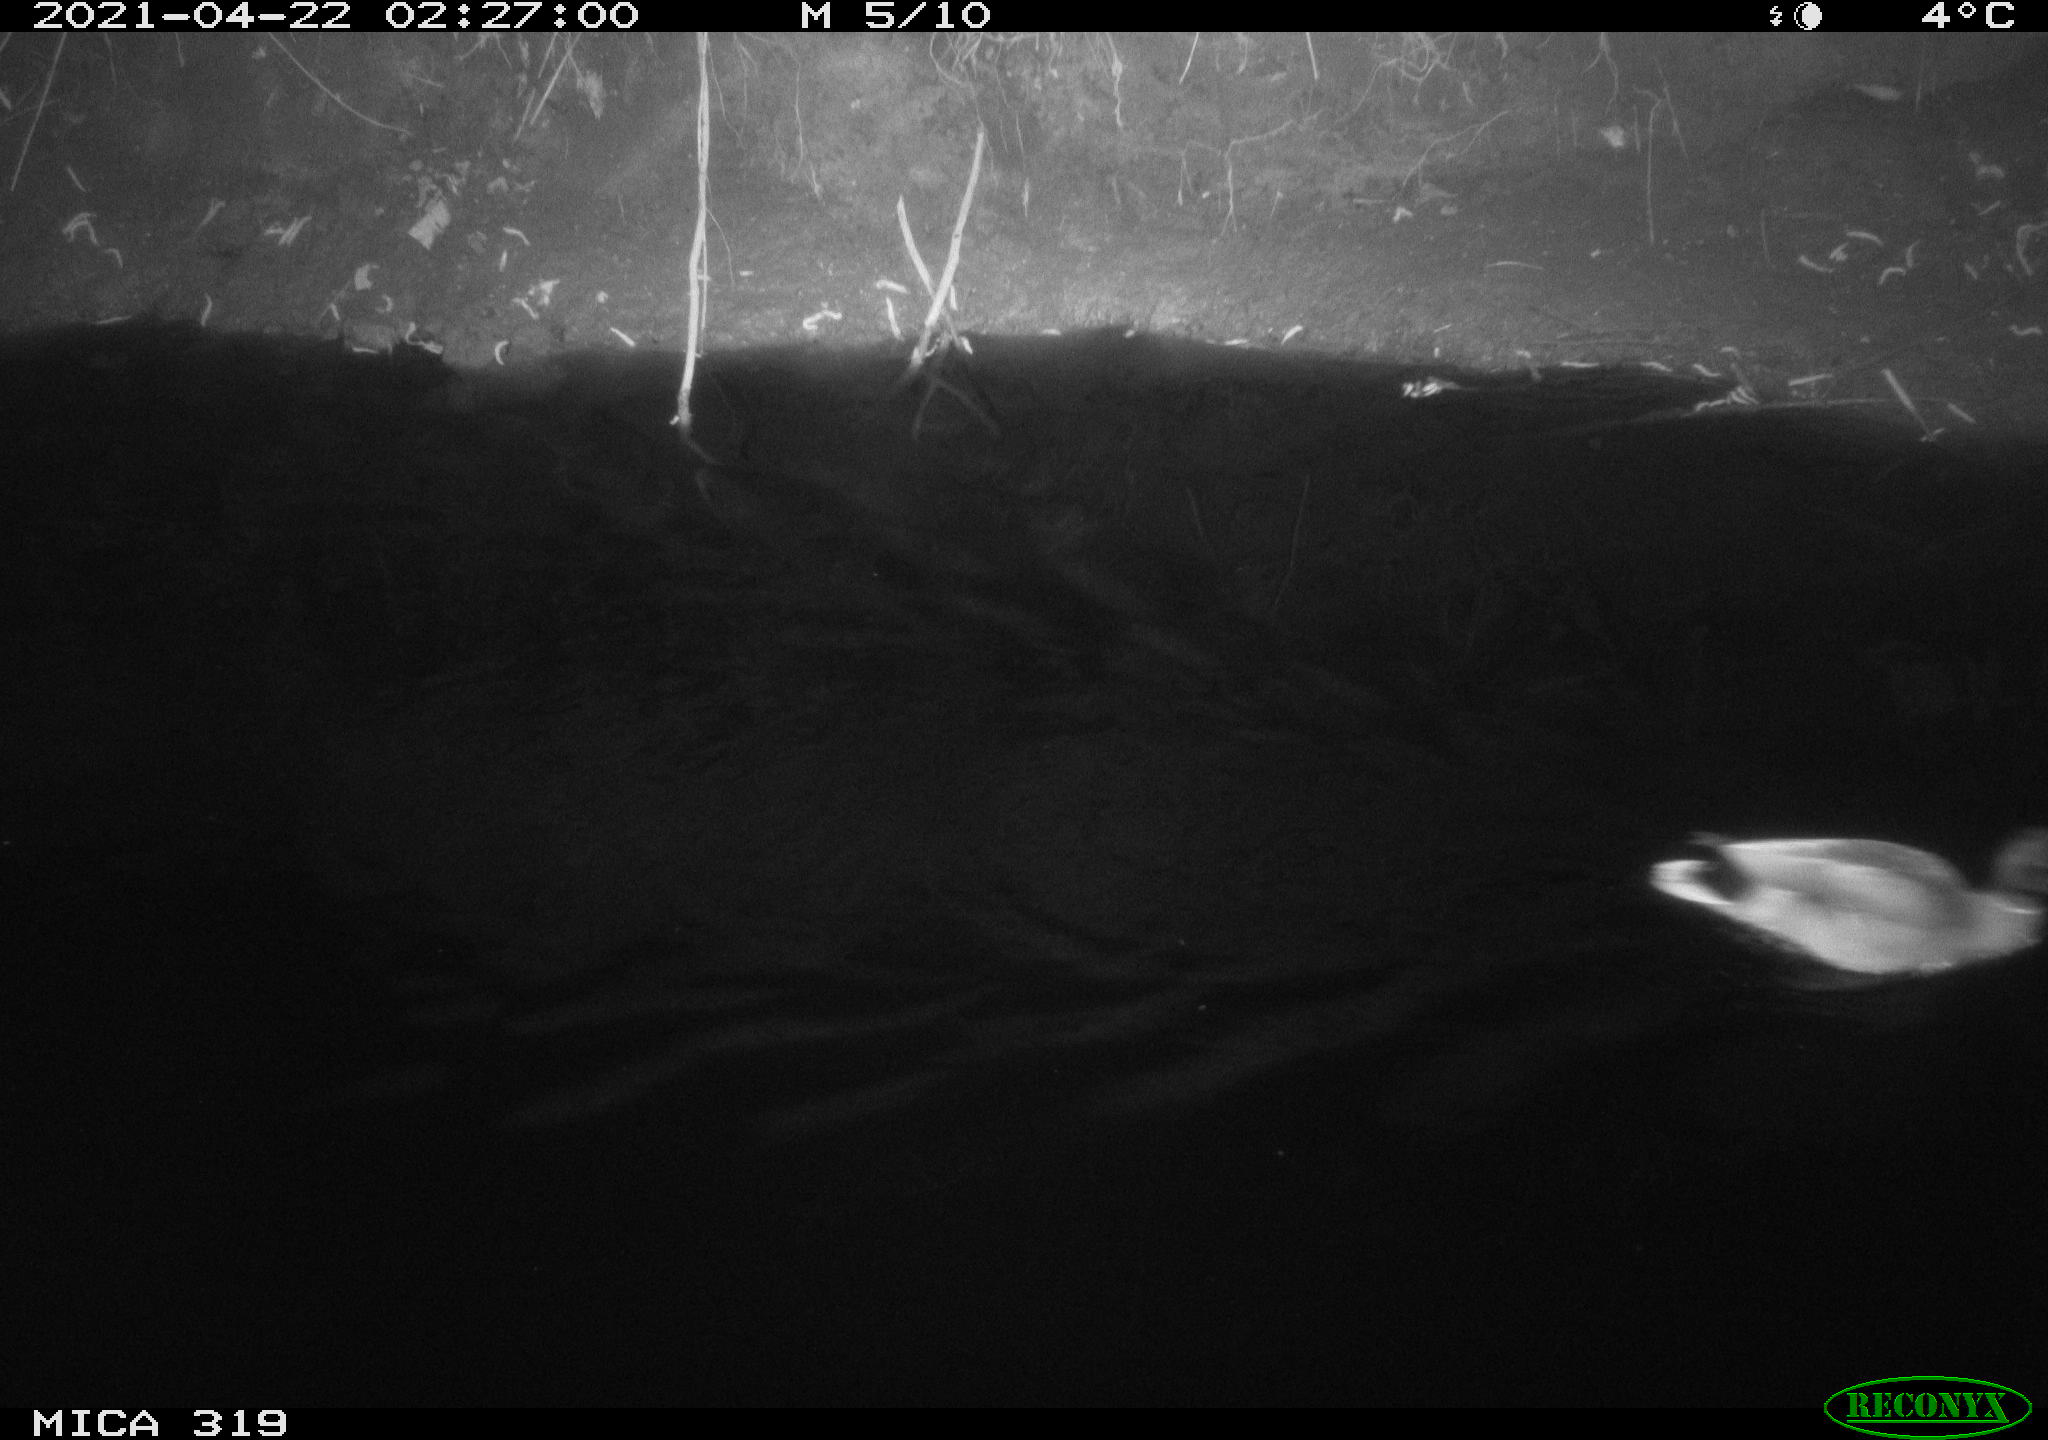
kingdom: Animalia
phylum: Chordata
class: Aves
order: Anseriformes
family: Anatidae
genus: Anas
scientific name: Anas platyrhynchos
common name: Mallard
